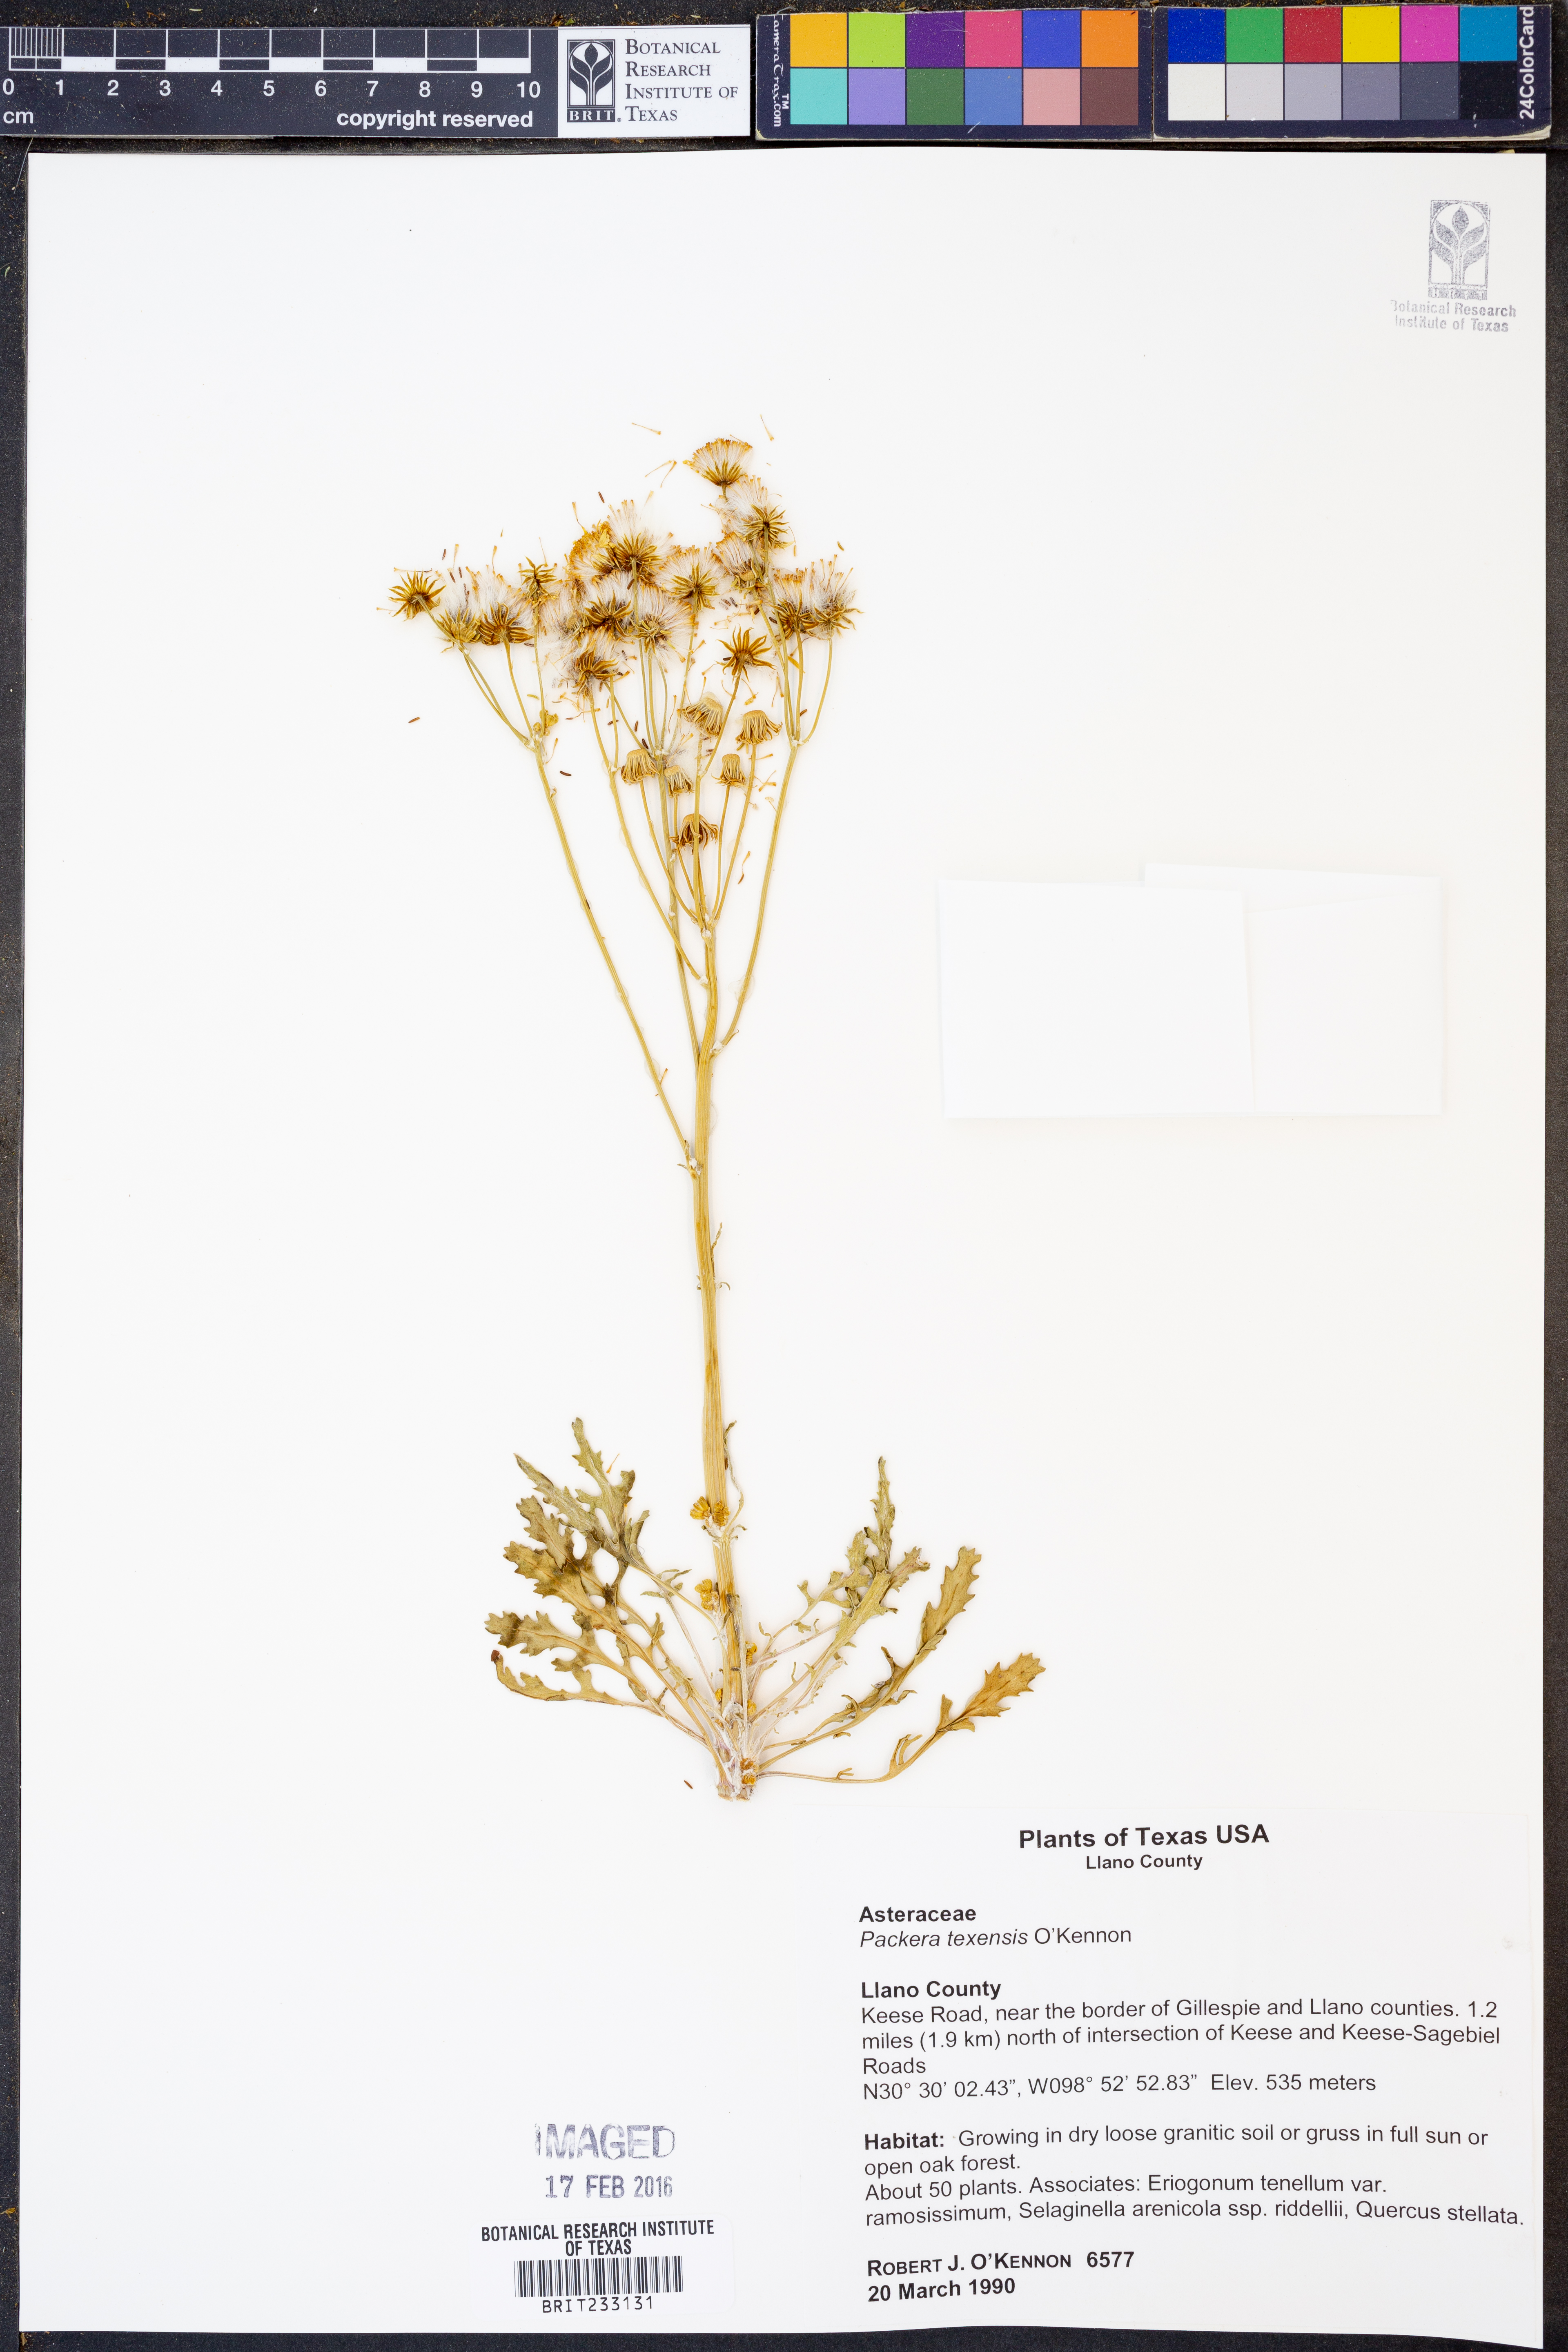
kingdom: Plantae
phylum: Tracheophyta
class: Magnoliopsida
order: Asterales
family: Asteraceae
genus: Packera
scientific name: Packera texensis
